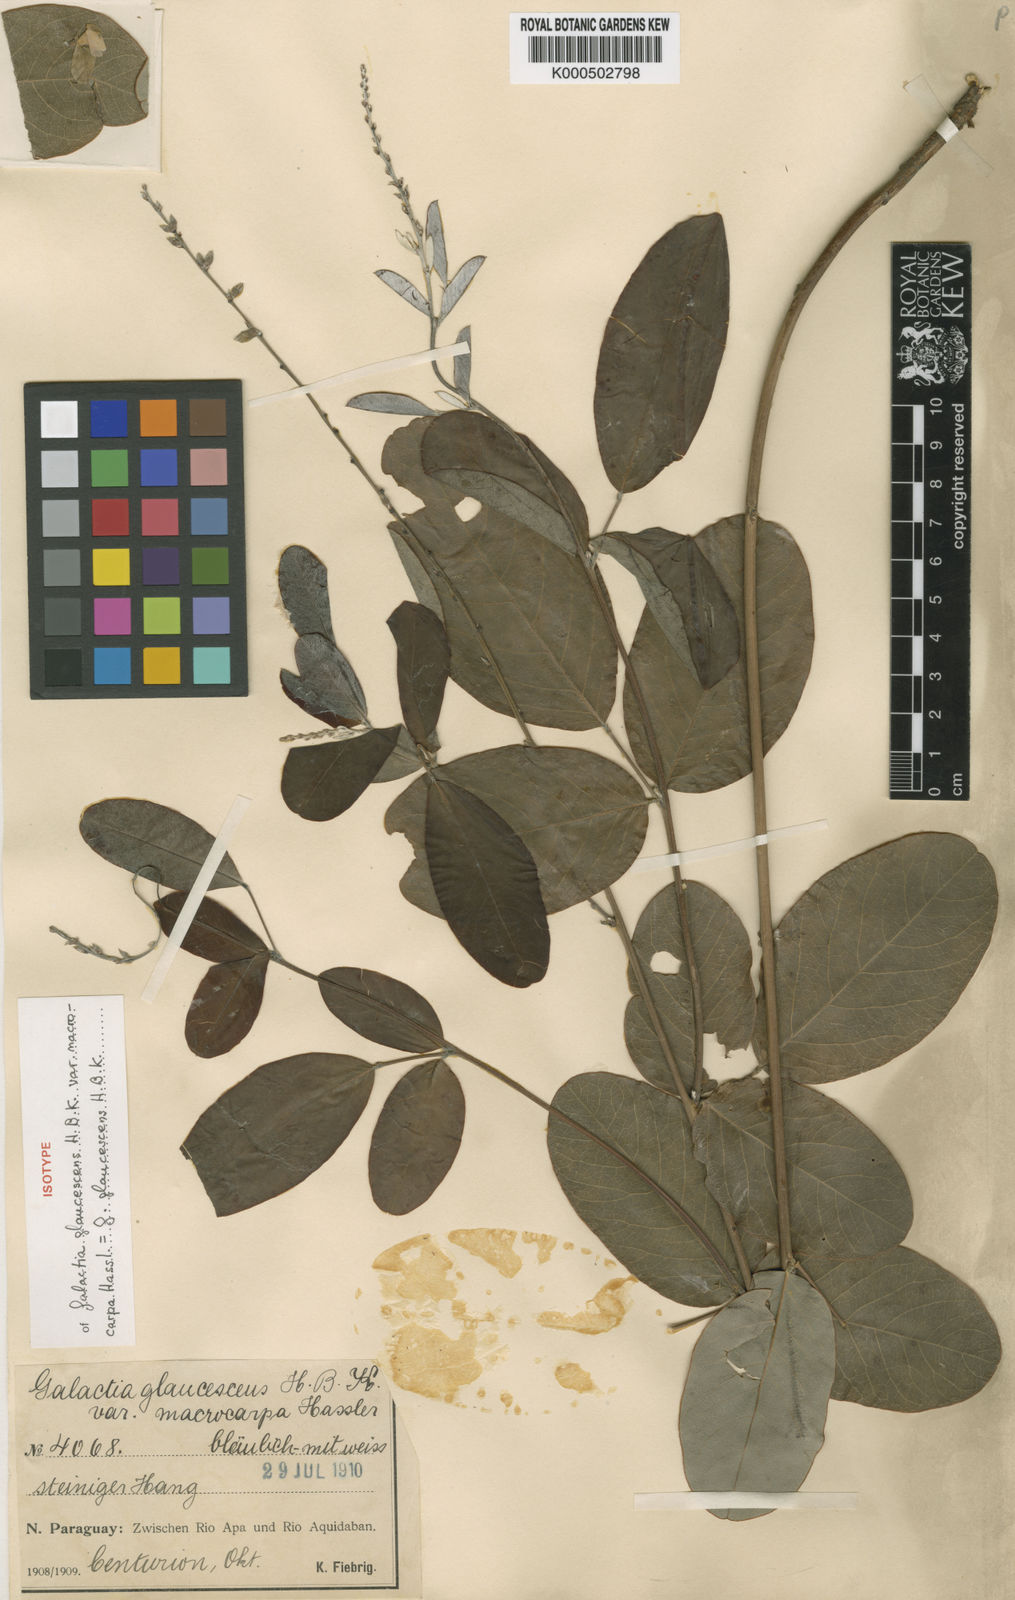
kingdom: Plantae
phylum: Tracheophyta
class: Magnoliopsida
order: Fabales
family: Fabaceae
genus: Galactia
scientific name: Galactia glaucescens
